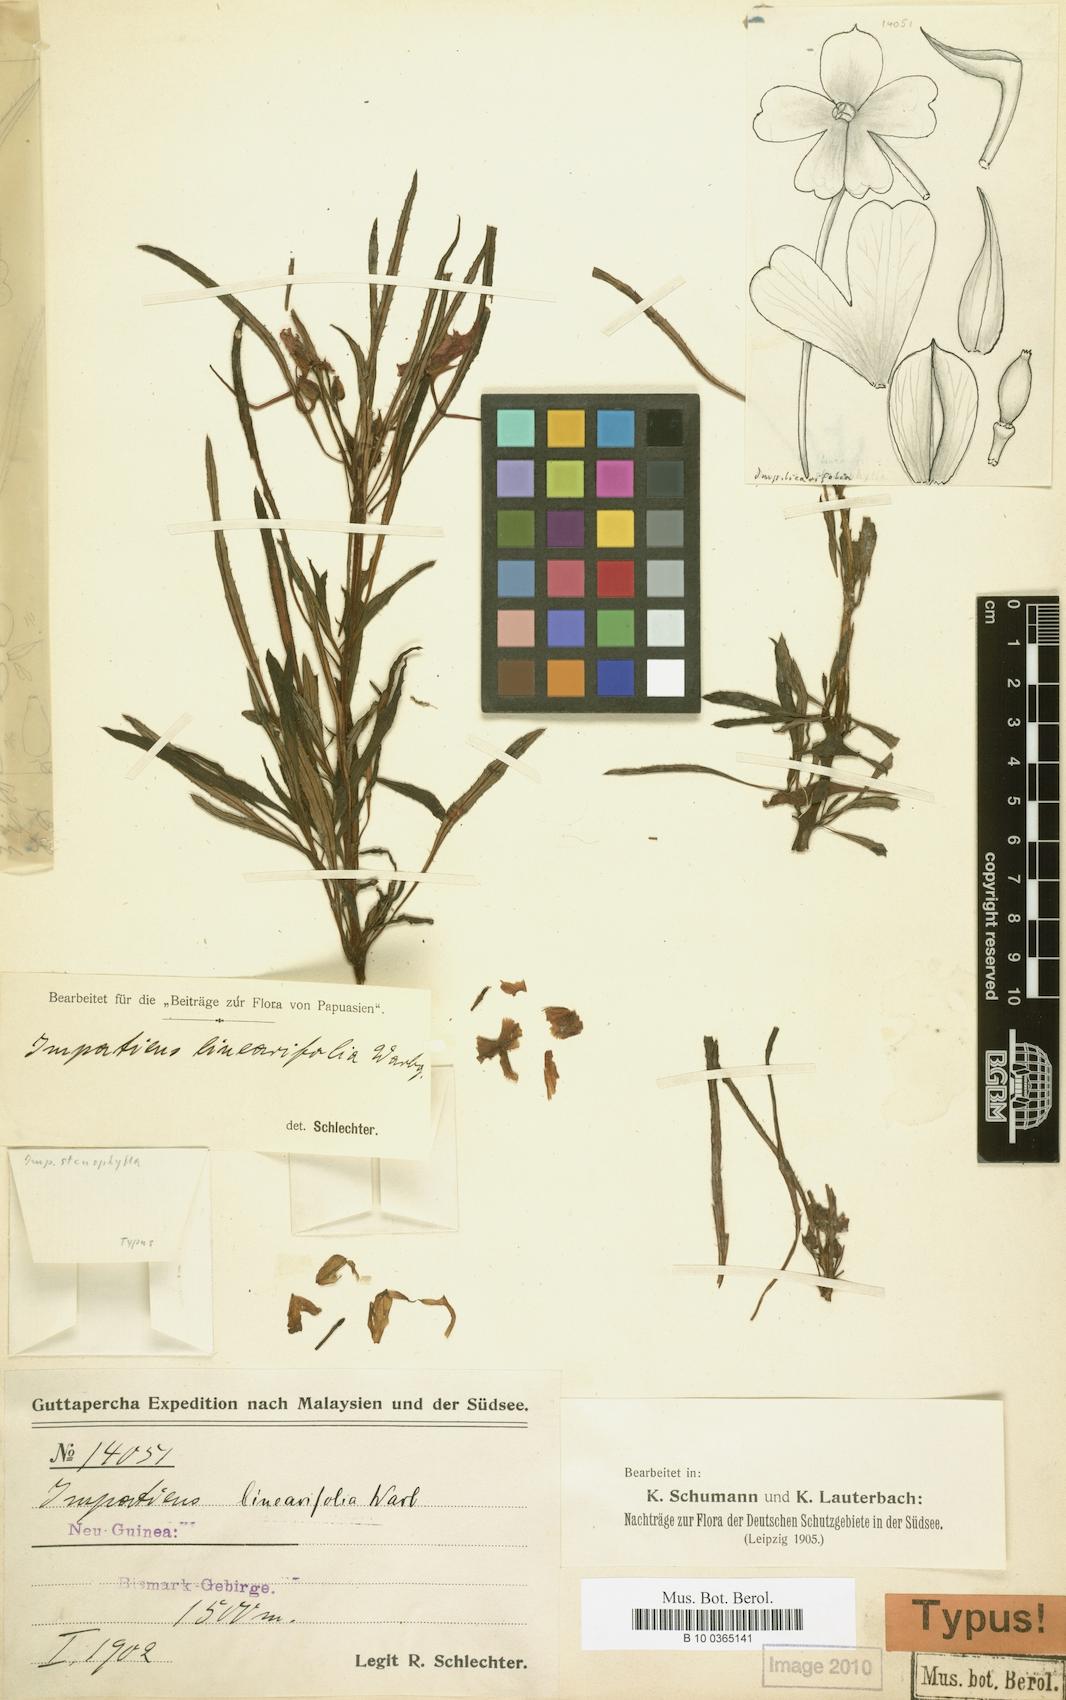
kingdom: Plantae
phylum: Tracheophyta
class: Magnoliopsida
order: Ericales
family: Balsaminaceae
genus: Impatiens
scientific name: Impatiens hawkeri
